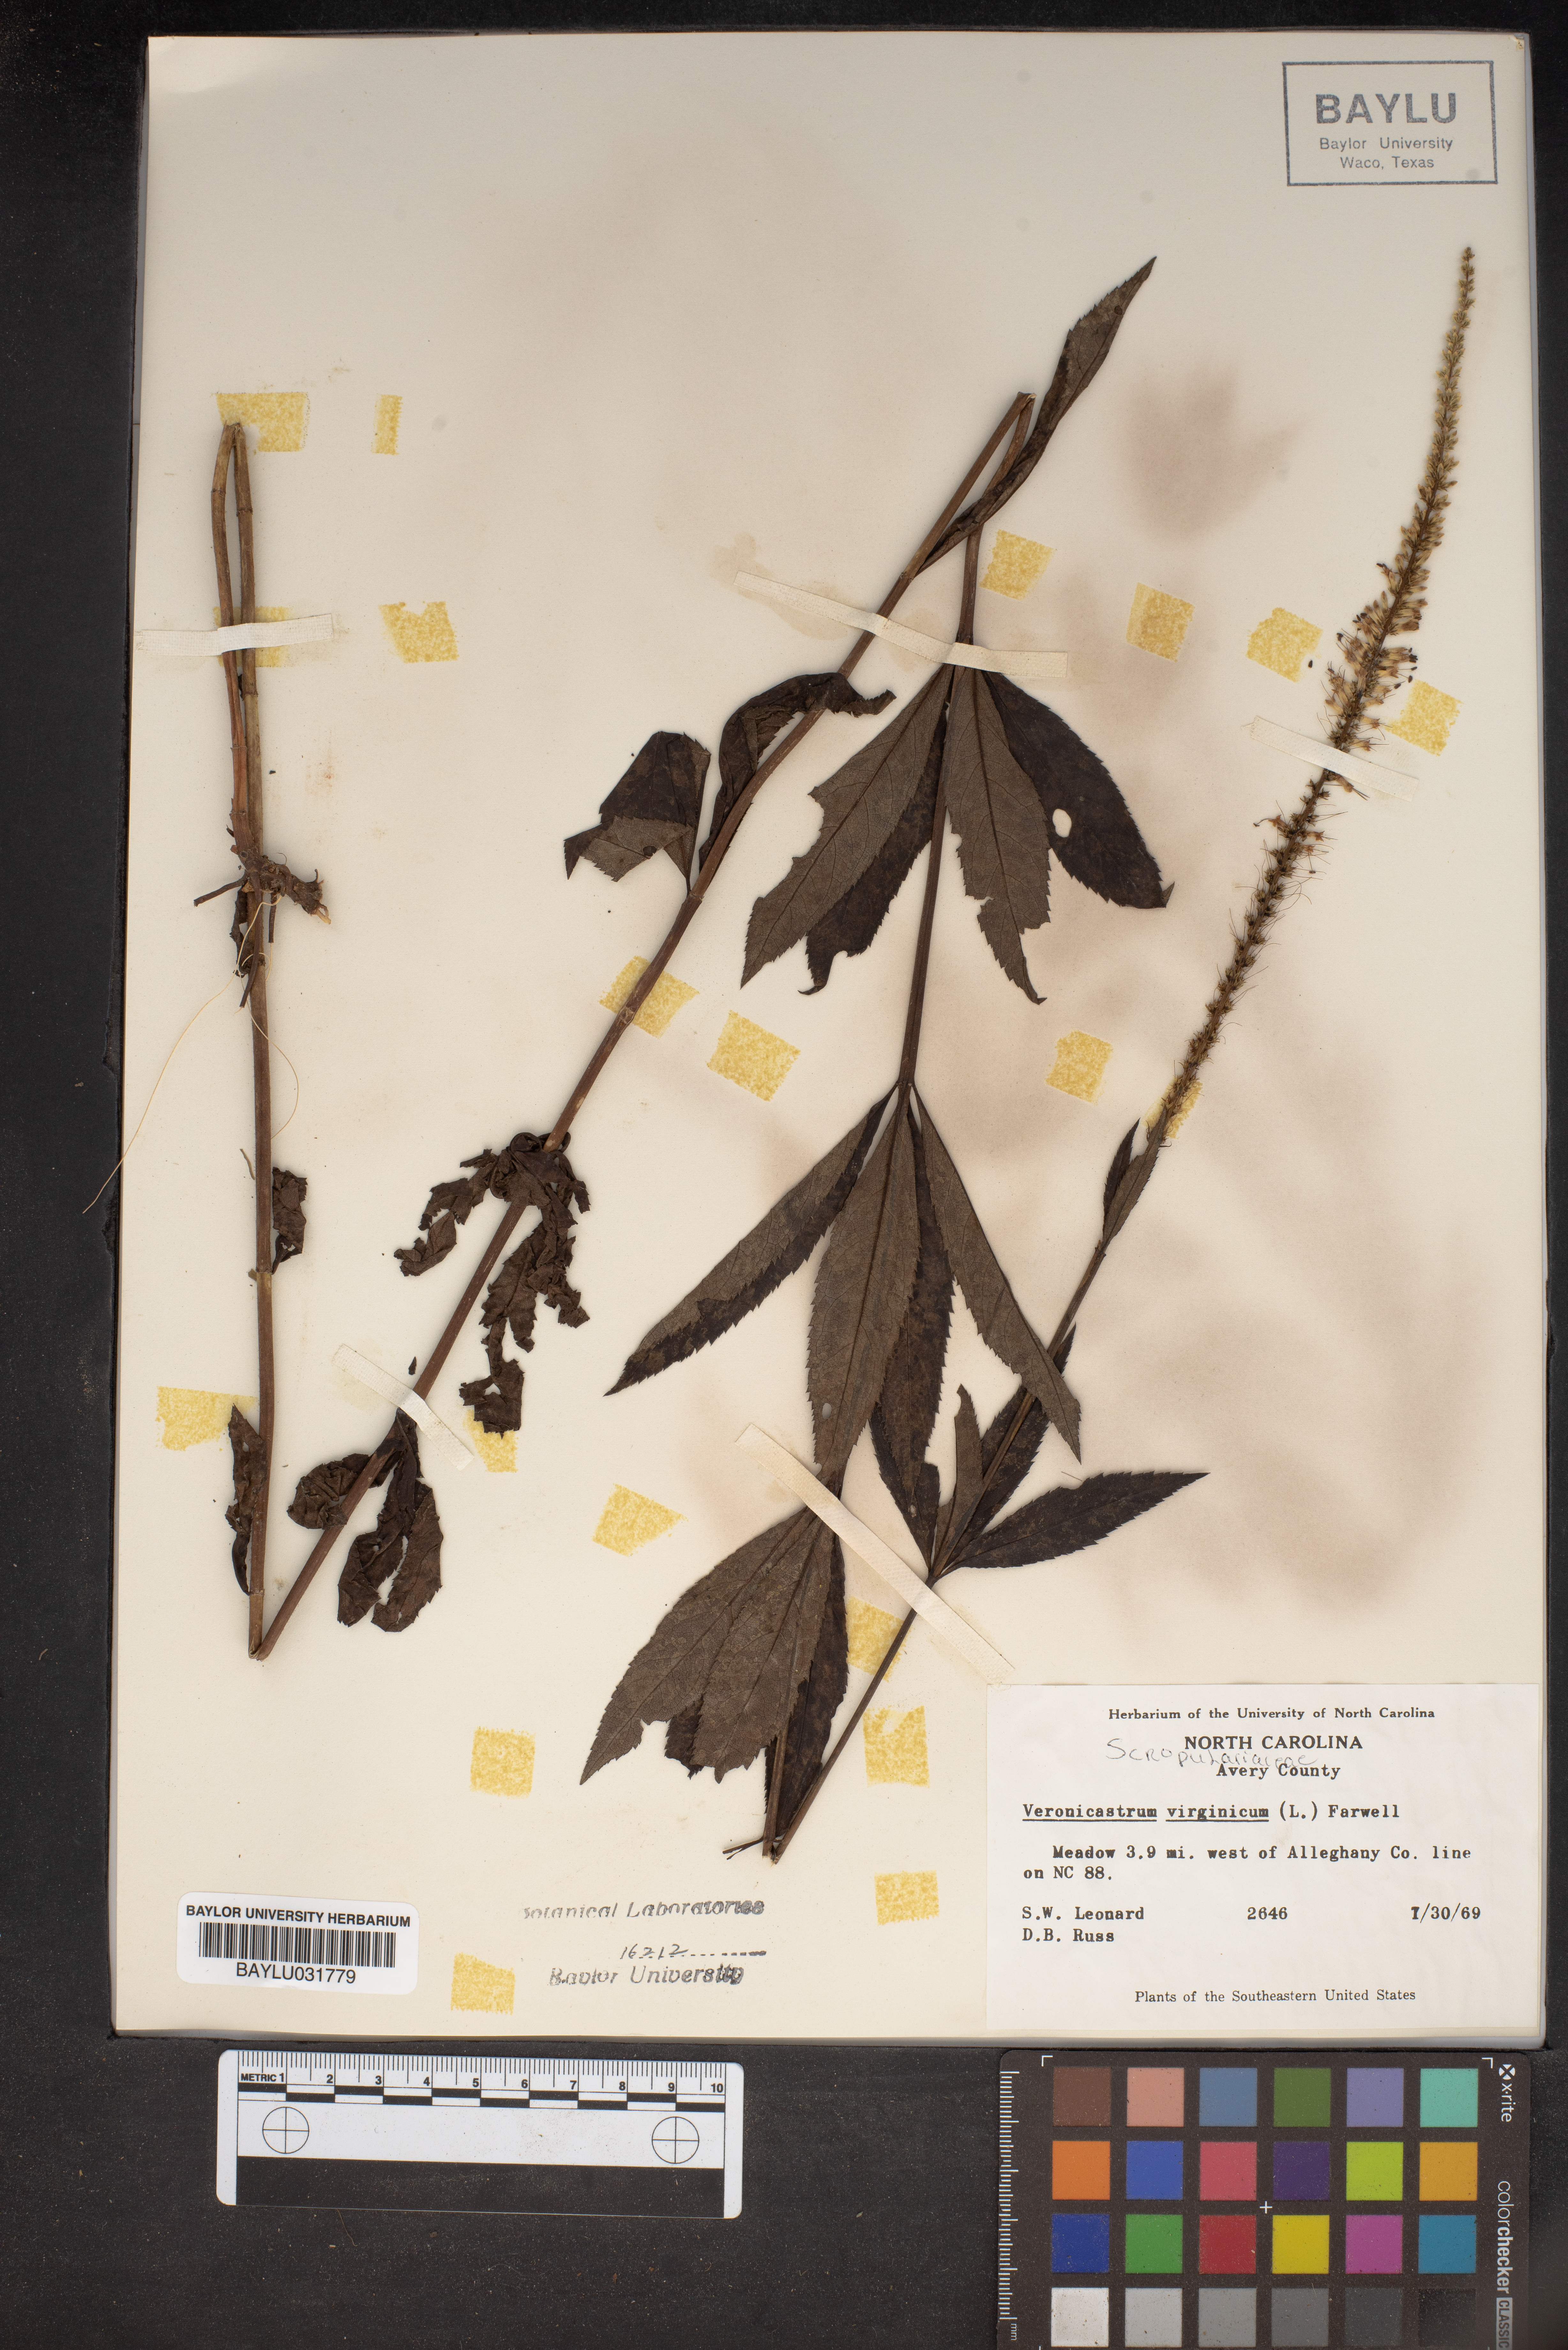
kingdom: Plantae
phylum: Tracheophyta
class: Magnoliopsida
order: Lamiales
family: Plantaginaceae
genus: Veronicastrum
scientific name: Veronicastrum virginicum
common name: Blackroot
